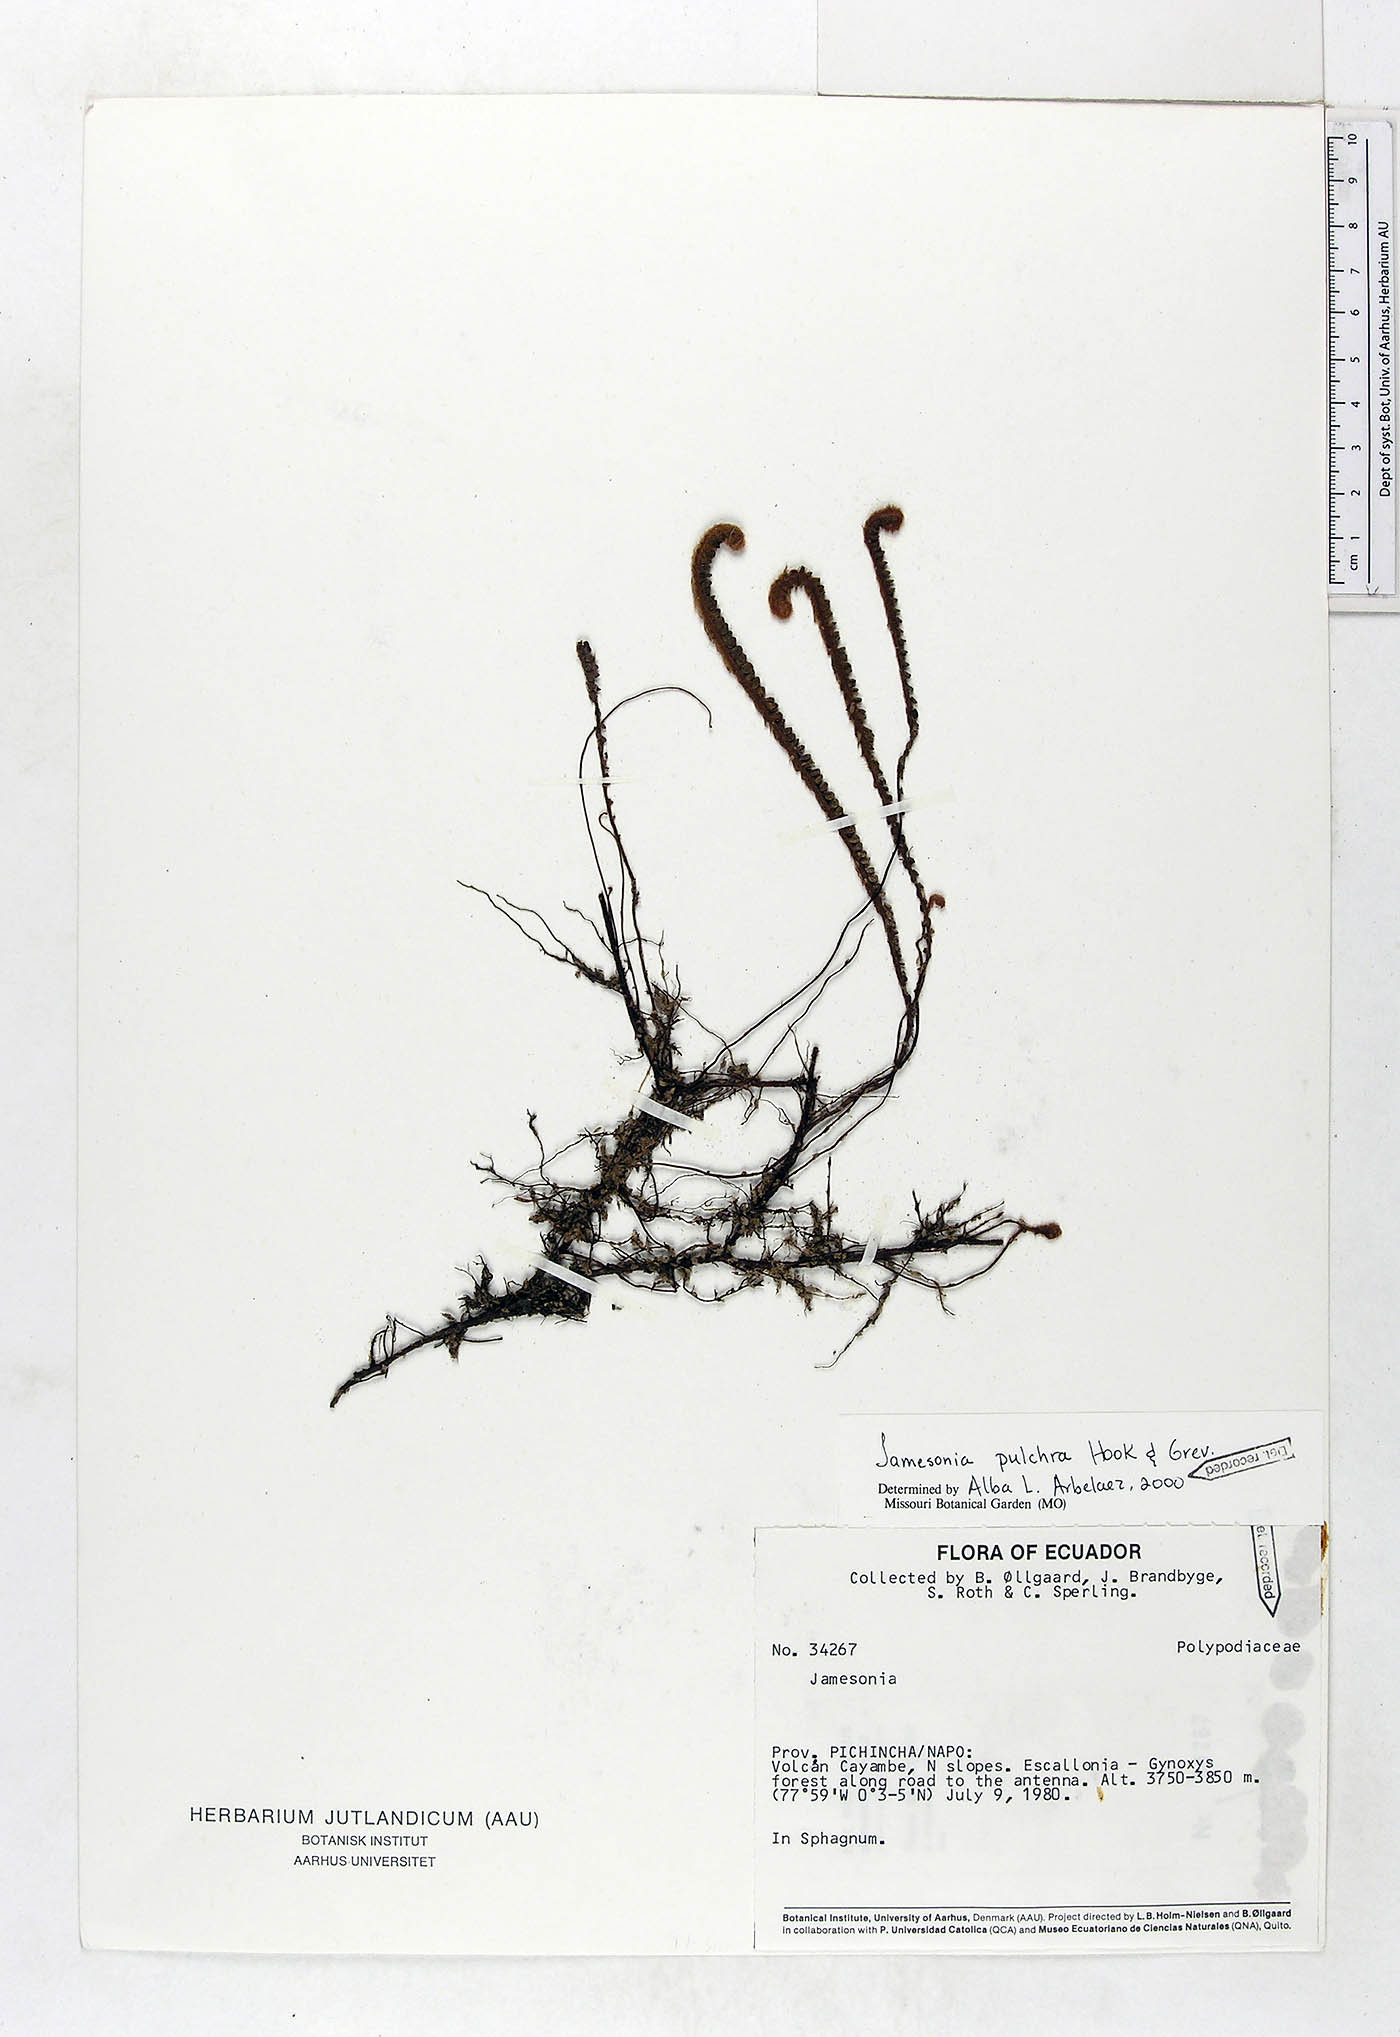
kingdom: Plantae
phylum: Tracheophyta
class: Polypodiopsida
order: Polypodiales
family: Pteridaceae
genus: Jamesonia
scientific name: Jamesonia pulchra
